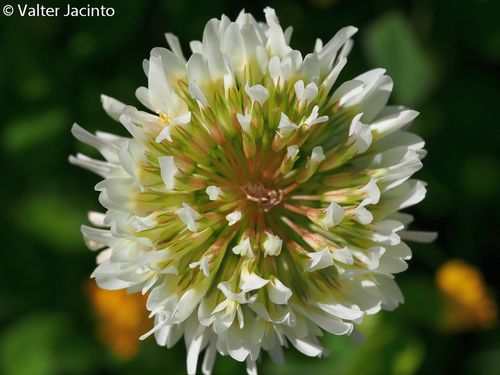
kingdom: Plantae
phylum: Tracheophyta
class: Magnoliopsida
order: Fabales
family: Fabaceae
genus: Trifolium
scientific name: Trifolium repens
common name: White clover
